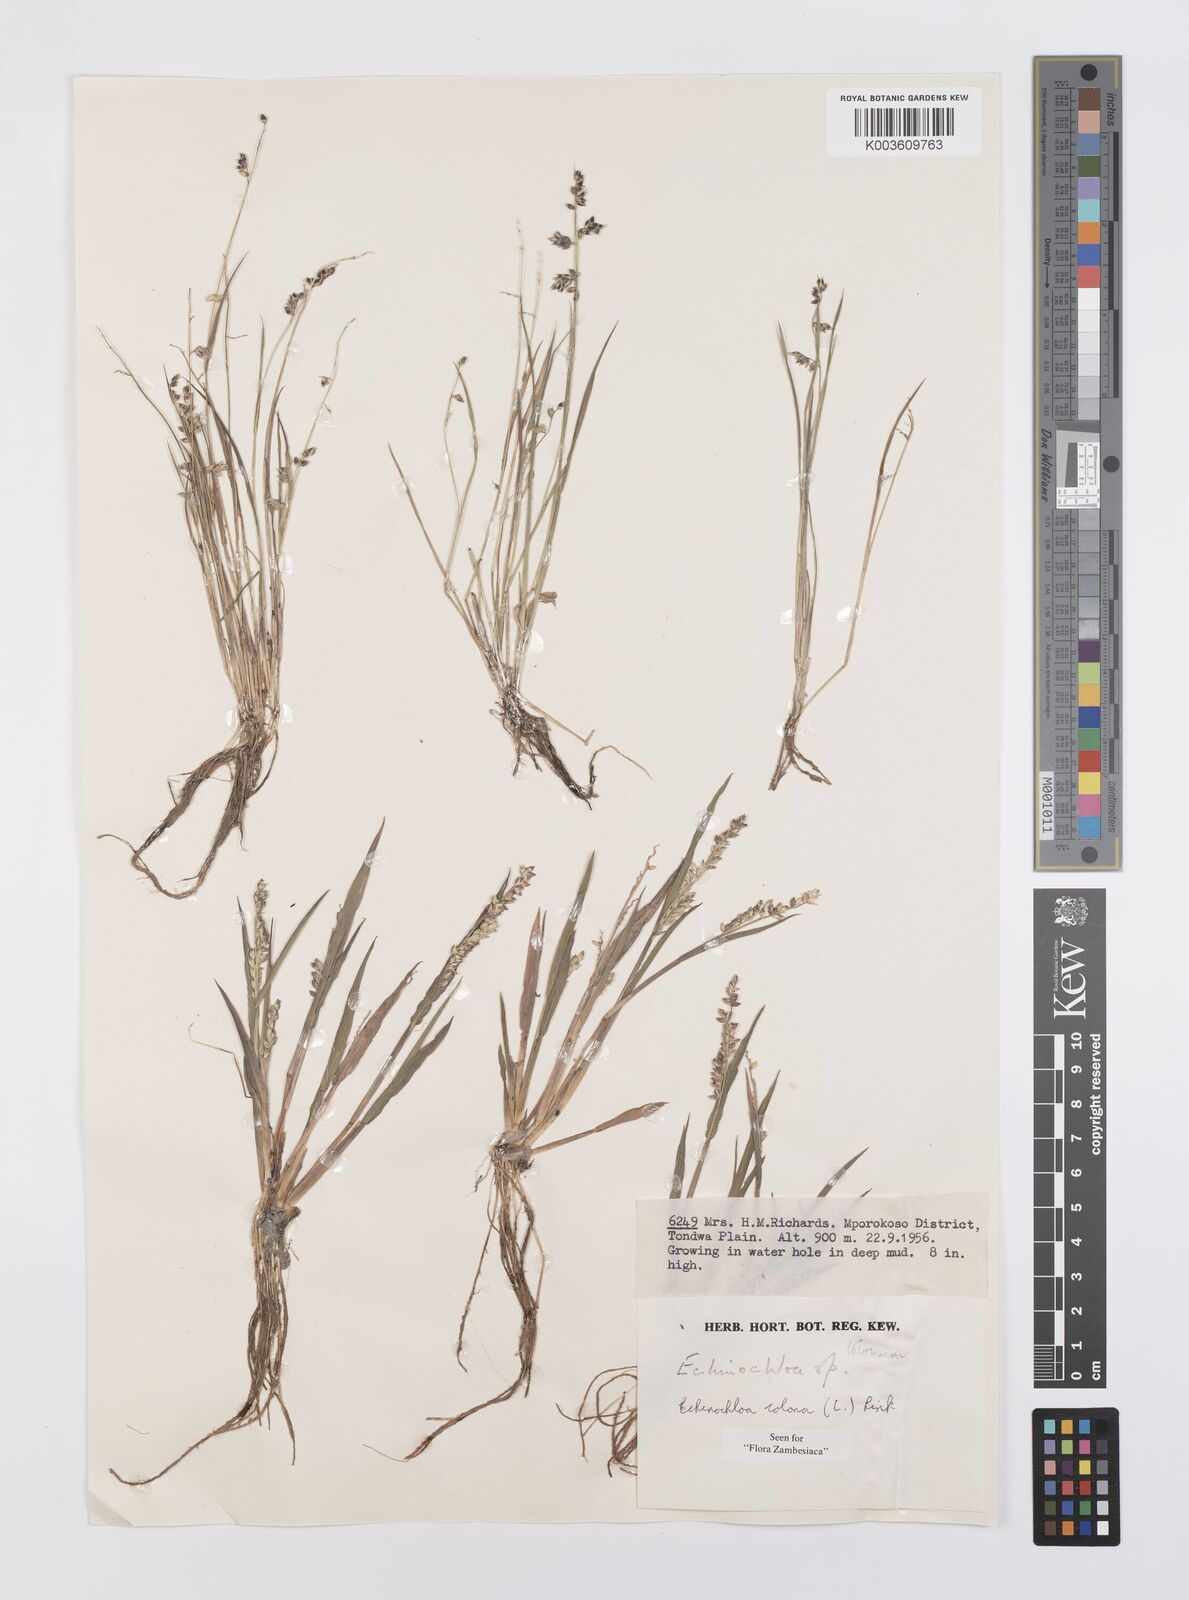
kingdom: Plantae
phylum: Tracheophyta
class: Liliopsida
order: Poales
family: Poaceae
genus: Echinochloa
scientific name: Echinochloa colonum
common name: Jungle rice
